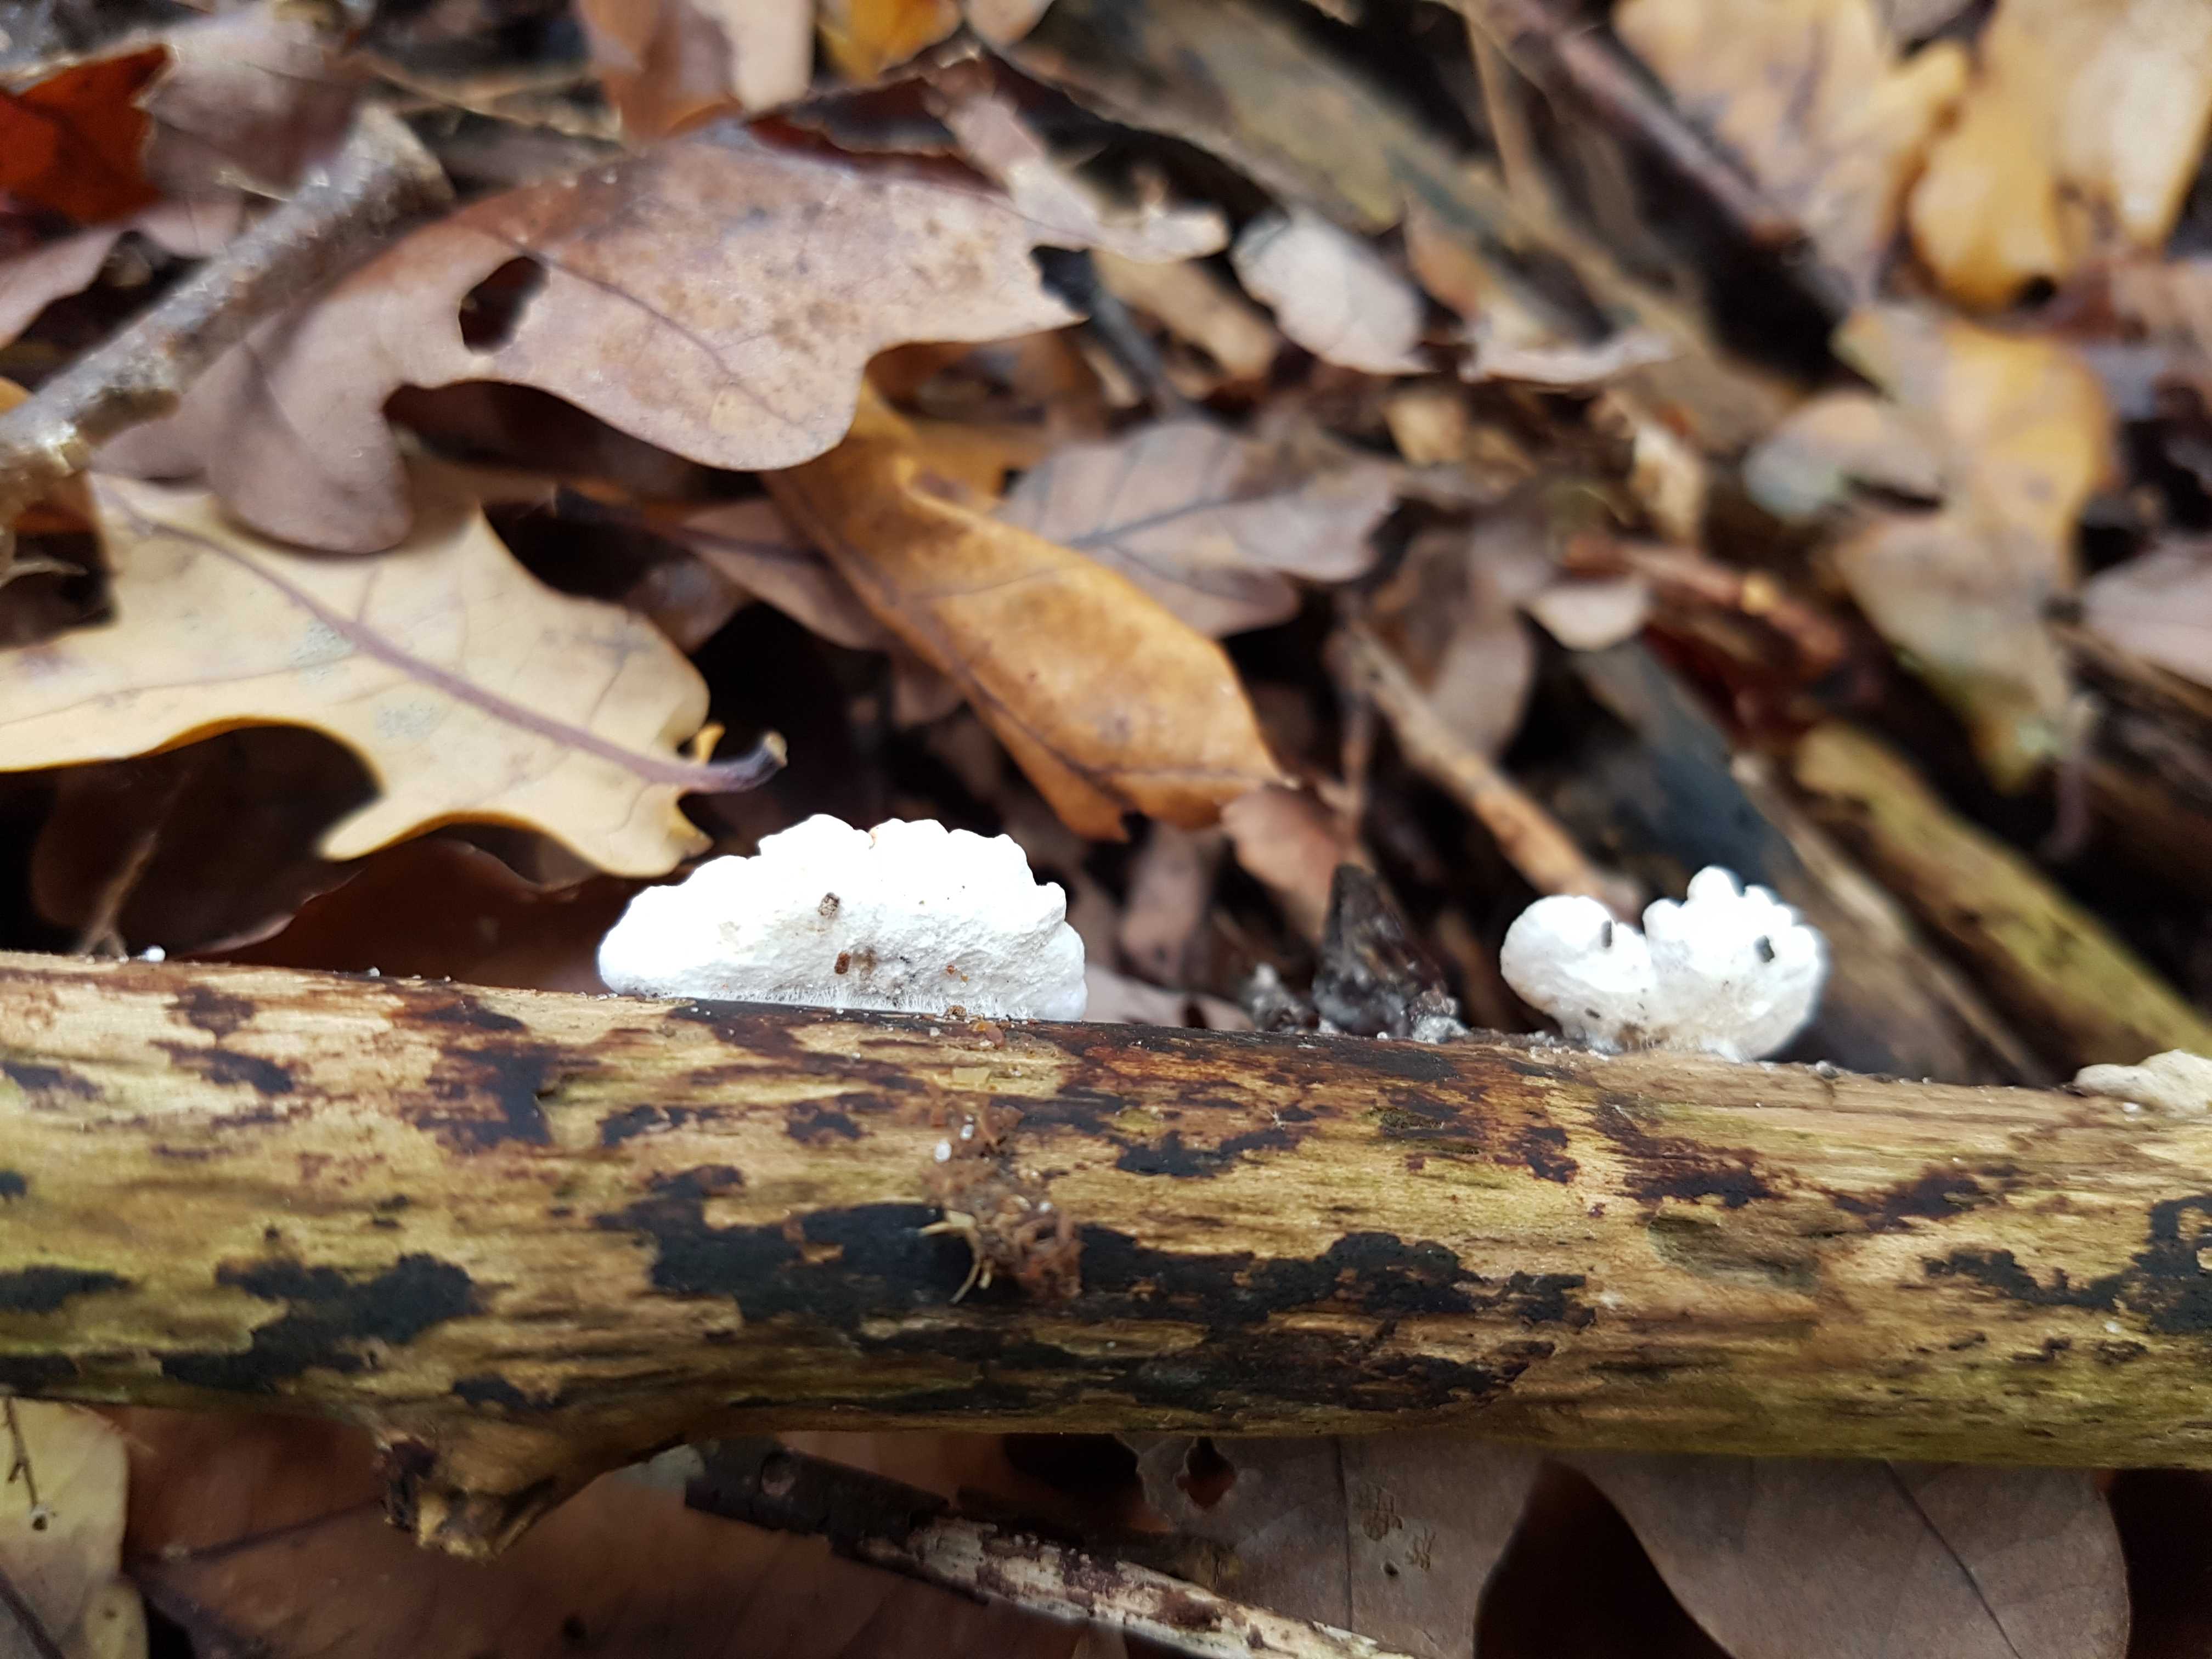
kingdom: Fungi
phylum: Basidiomycota
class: Agaricomycetes
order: Agaricales
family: Crepidotaceae
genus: Crepidotus
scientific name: Crepidotus
